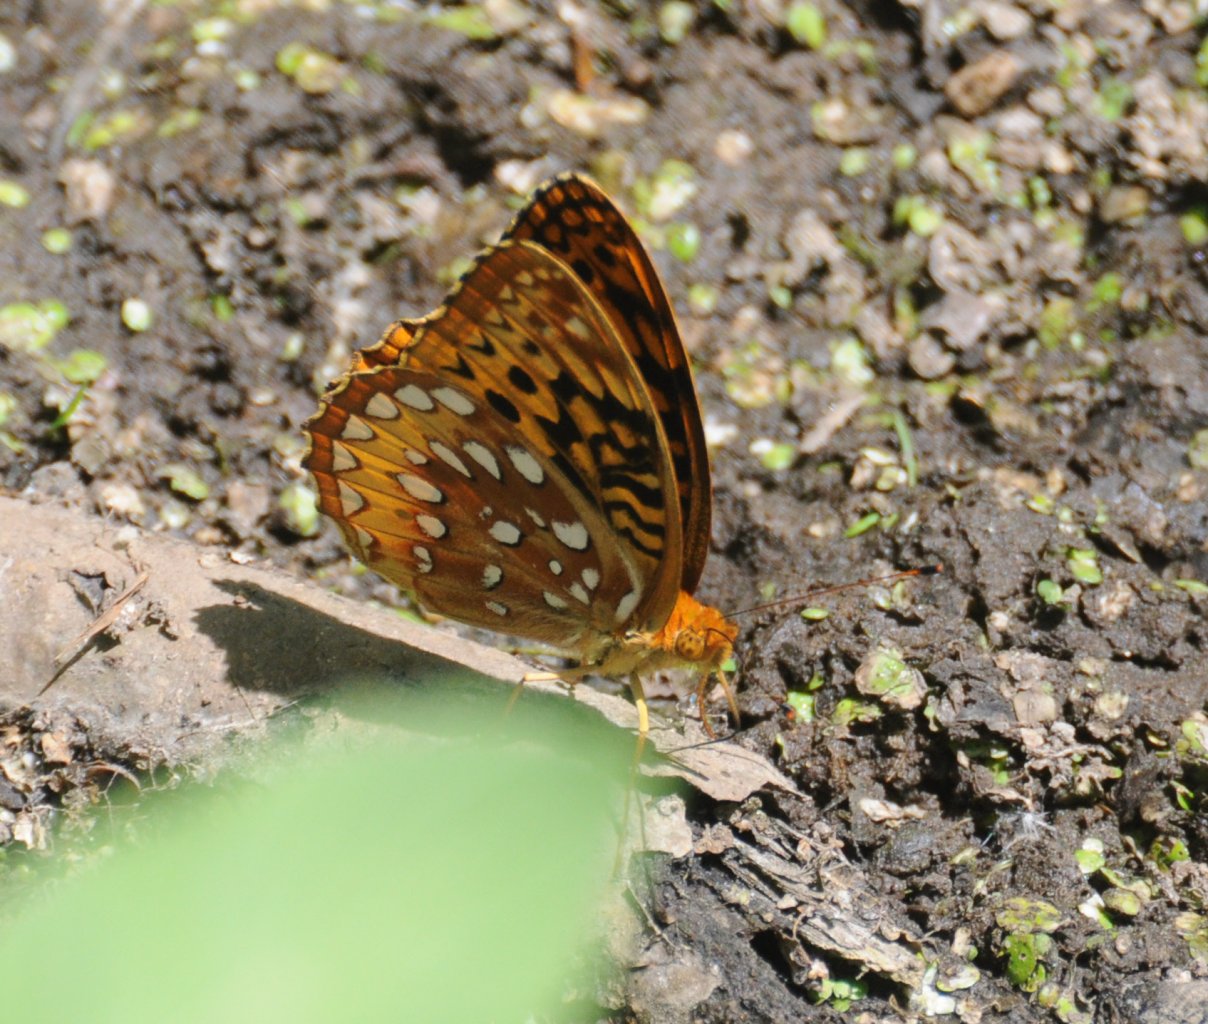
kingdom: Animalia
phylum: Arthropoda
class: Insecta
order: Lepidoptera
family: Nymphalidae
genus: Speyeria
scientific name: Speyeria cybele
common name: Great Spangled Fritillary
